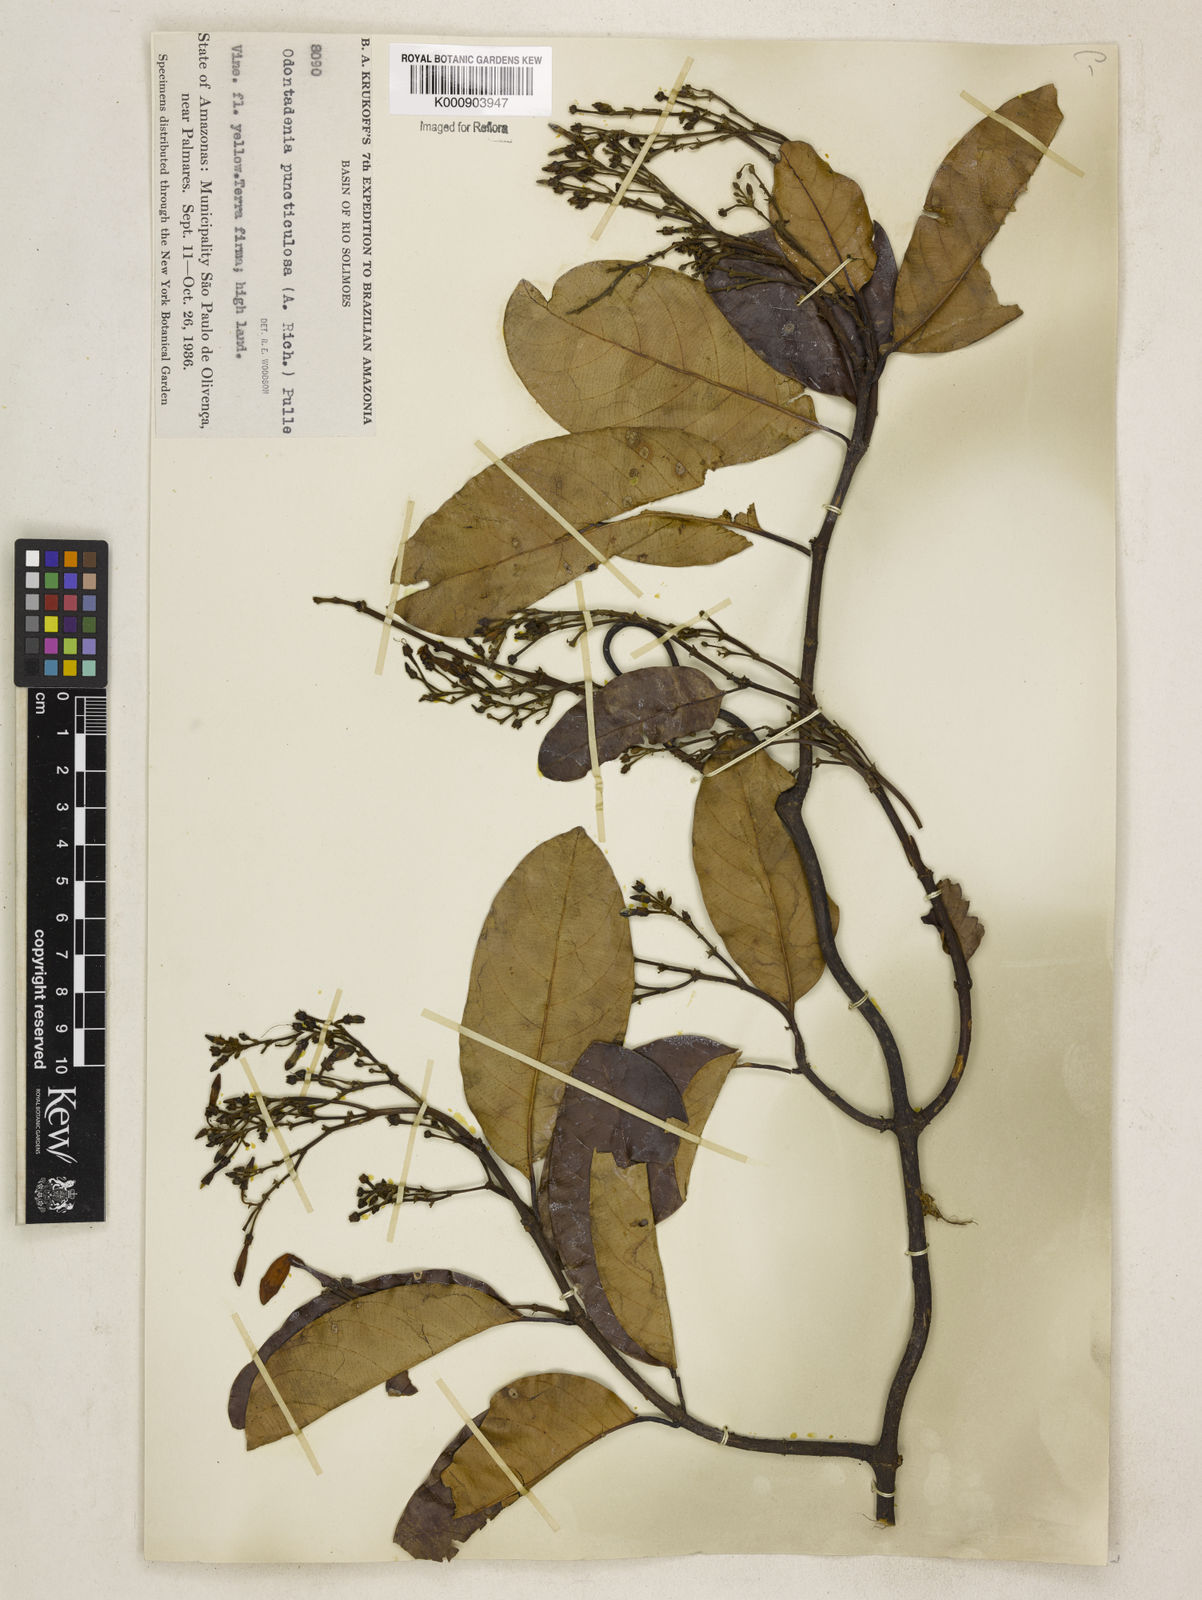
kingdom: Plantae
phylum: Tracheophyta
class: Magnoliopsida
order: Gentianales
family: Apocynaceae
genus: Odontadenia
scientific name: Odontadenia puncticulosa
